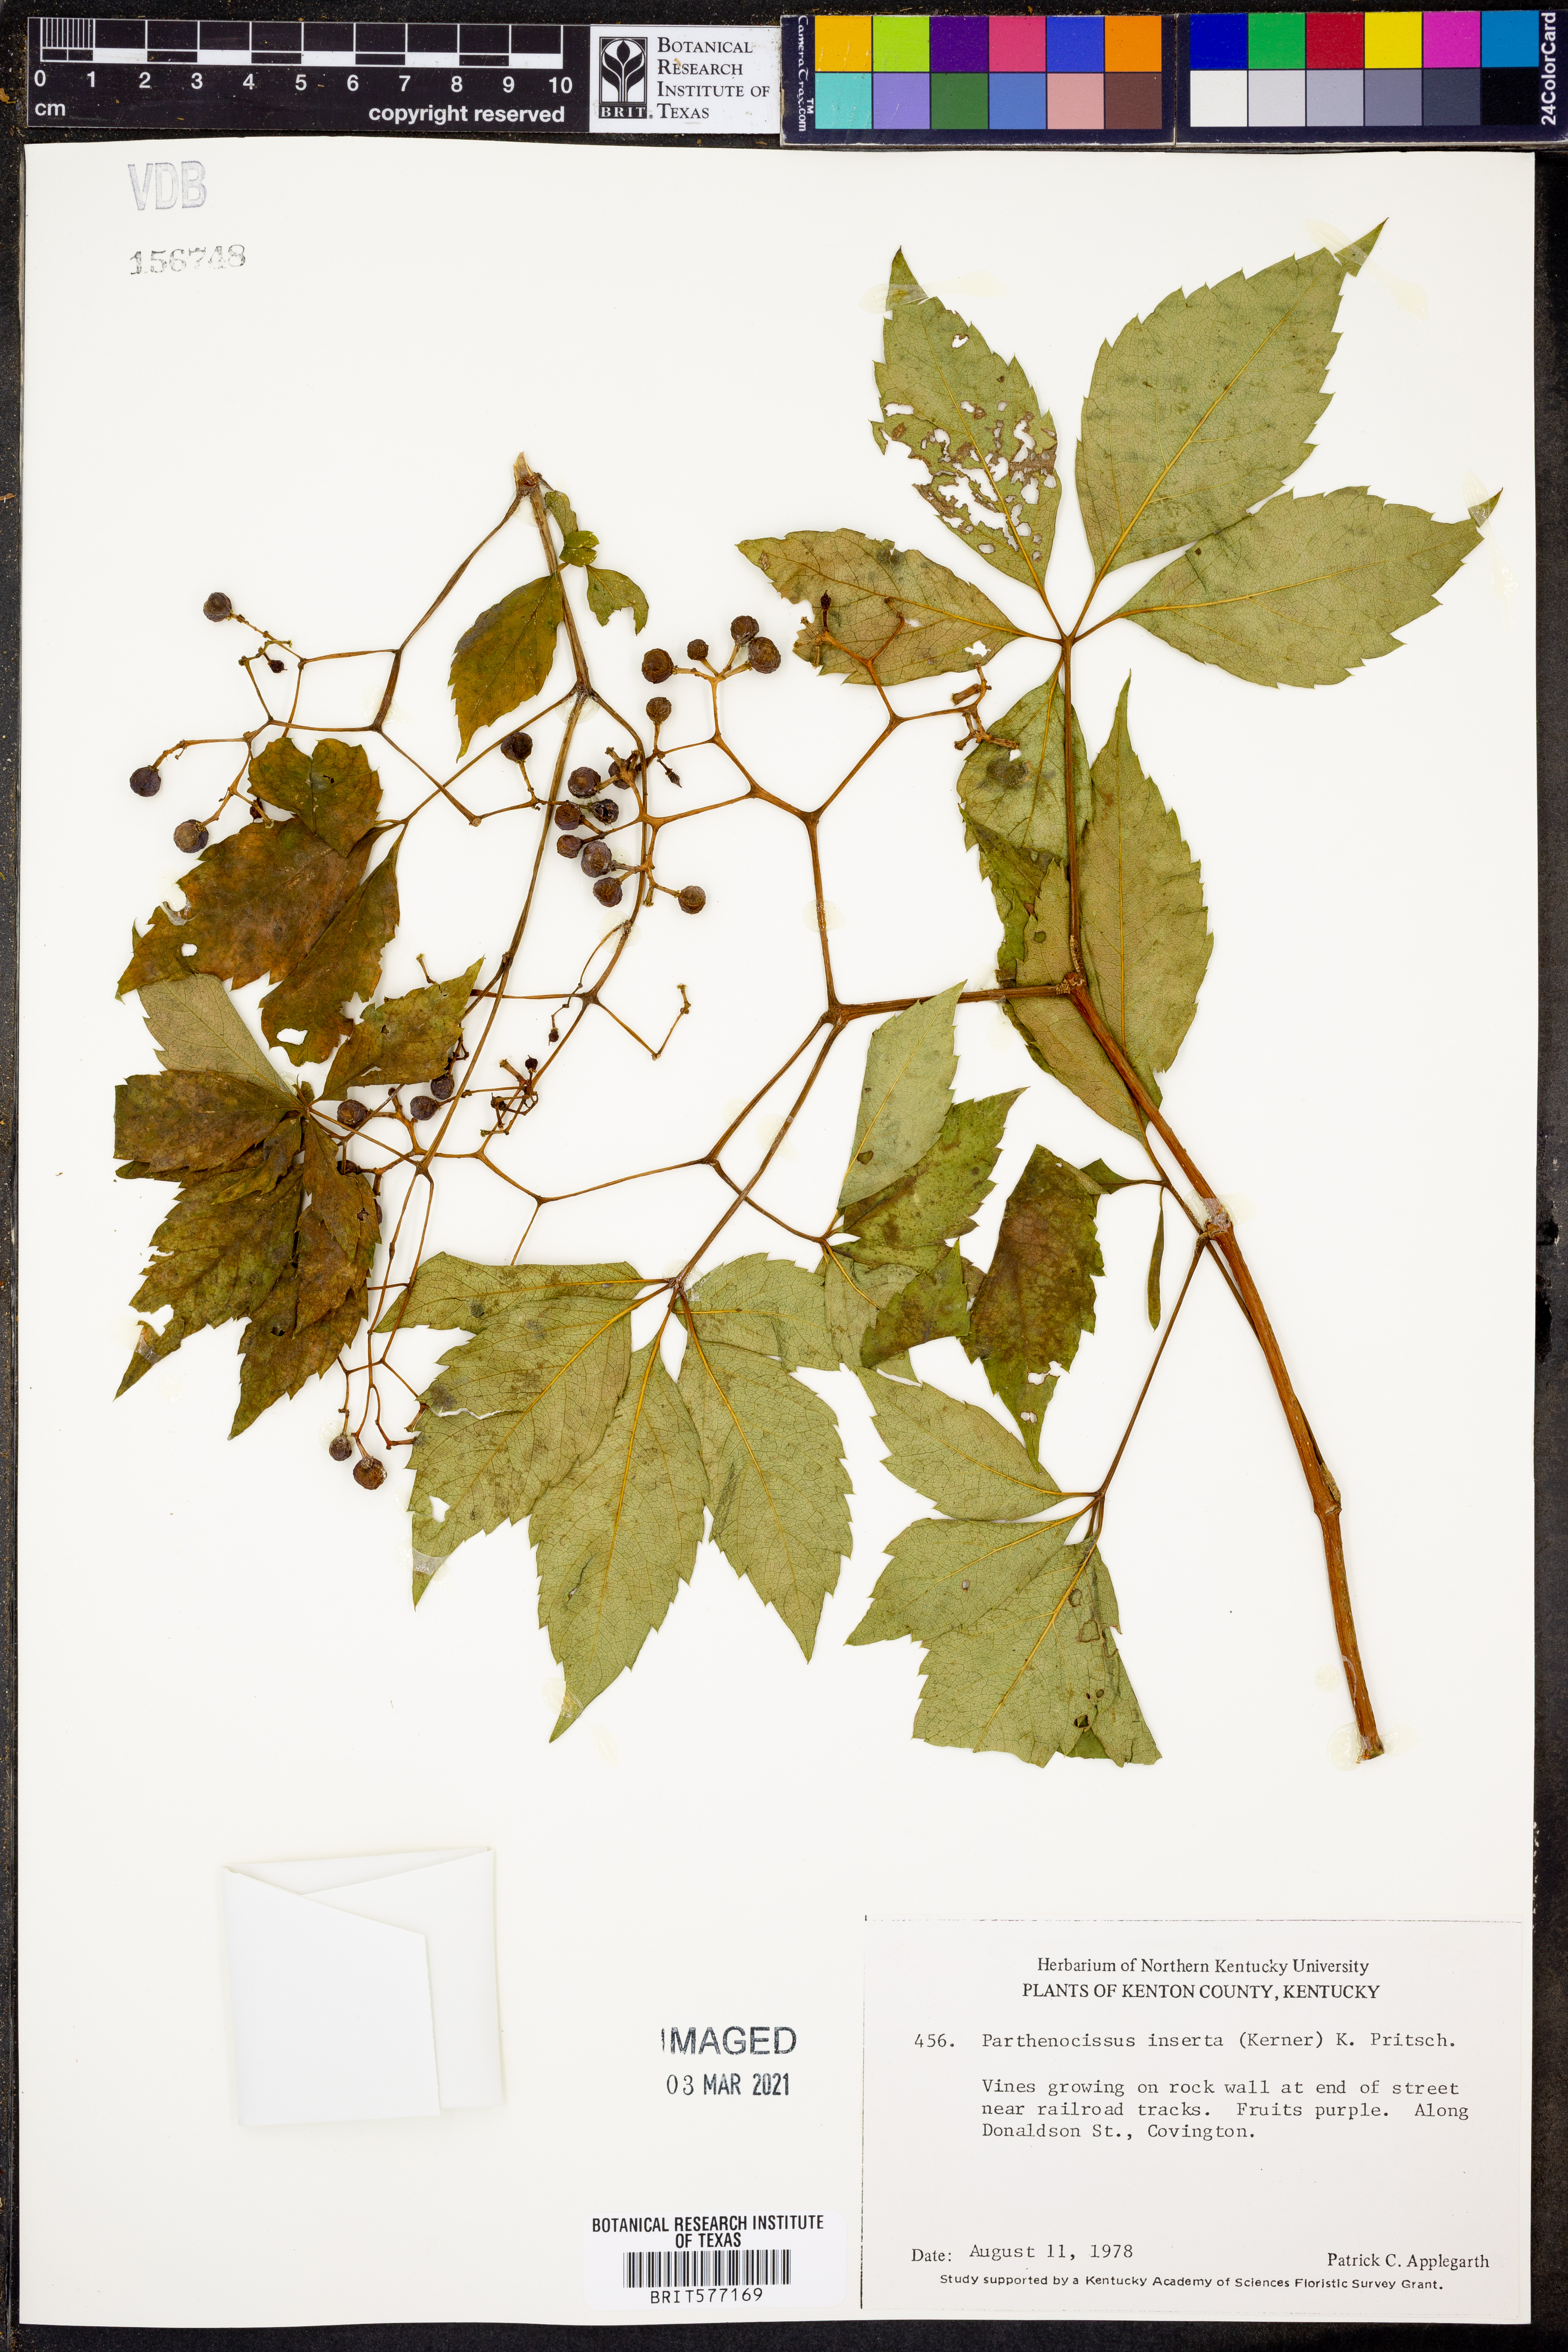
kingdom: Plantae
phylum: Tracheophyta
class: Magnoliopsida
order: Vitales
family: Vitaceae
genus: Parthenocissus
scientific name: Parthenocissus inserta
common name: False virginia-creeper
